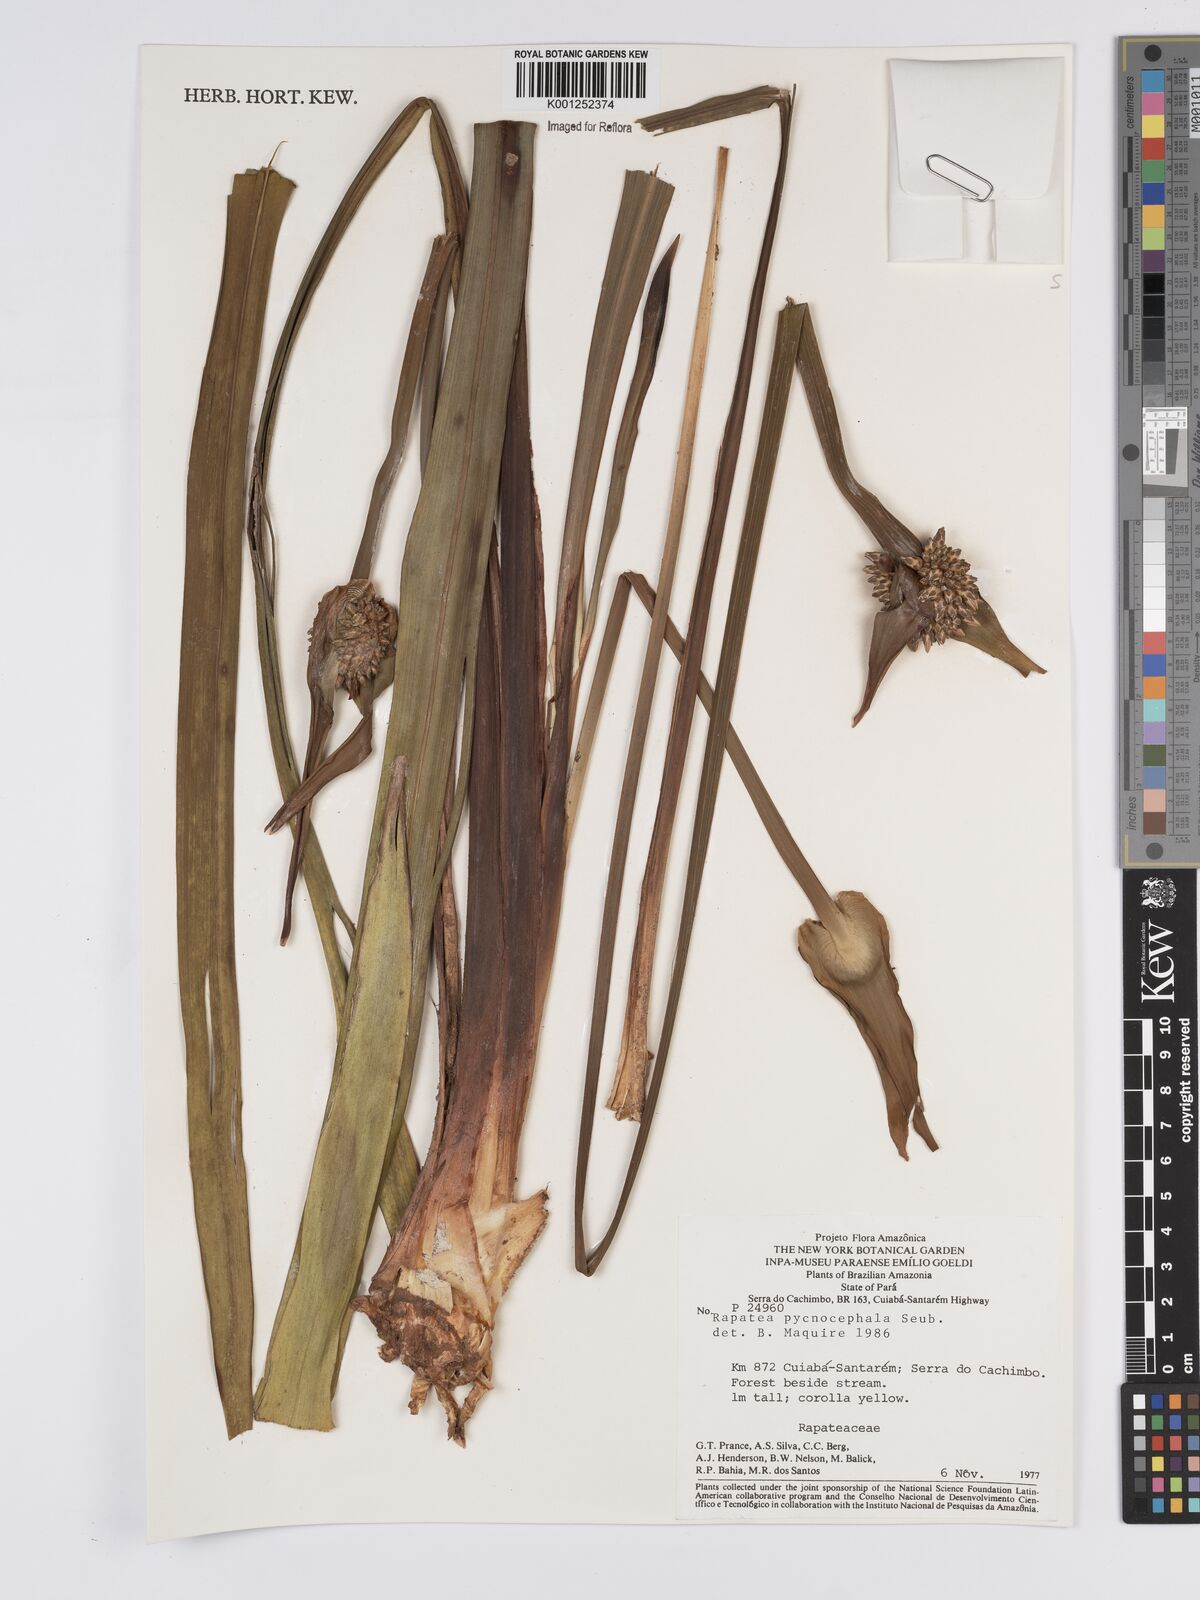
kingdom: Plantae
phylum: Tracheophyta
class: Liliopsida
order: Poales
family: Rapateaceae
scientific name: Rapateaceae
